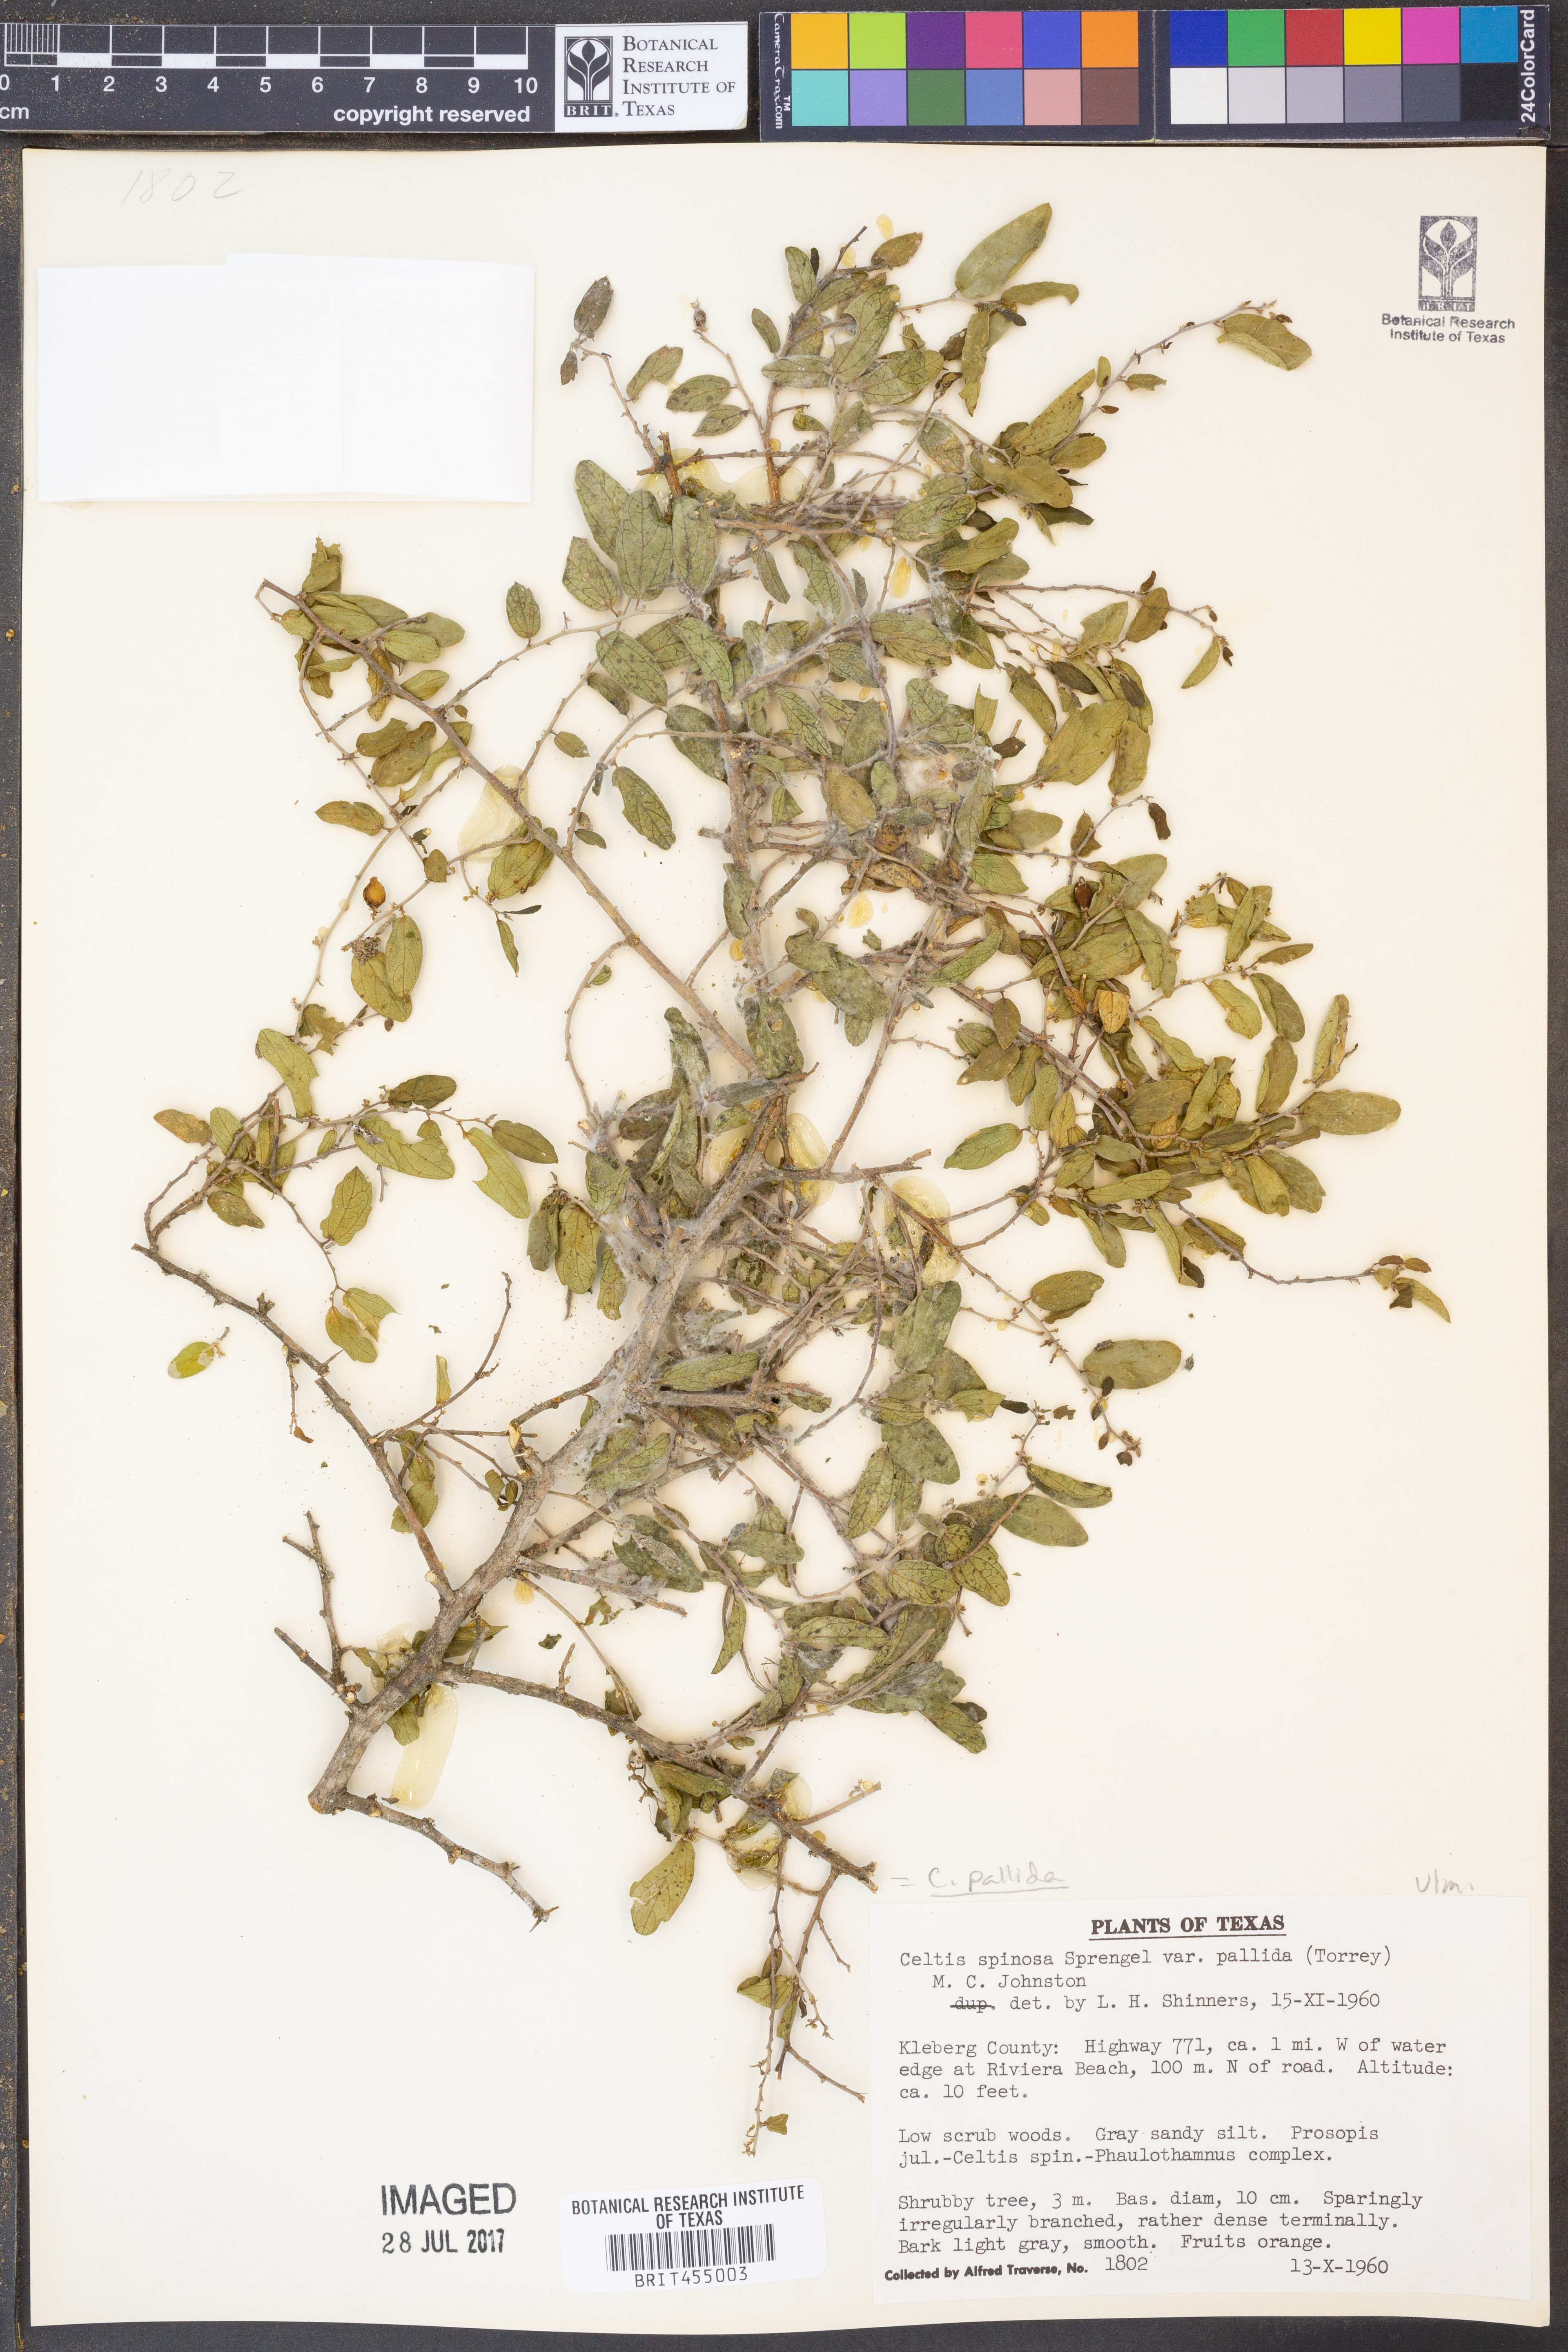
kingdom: Plantae
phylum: Tracheophyta
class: Magnoliopsida
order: Rosales
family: Cannabaceae
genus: Celtis
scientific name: Celtis pallida
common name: Desert hackberry
